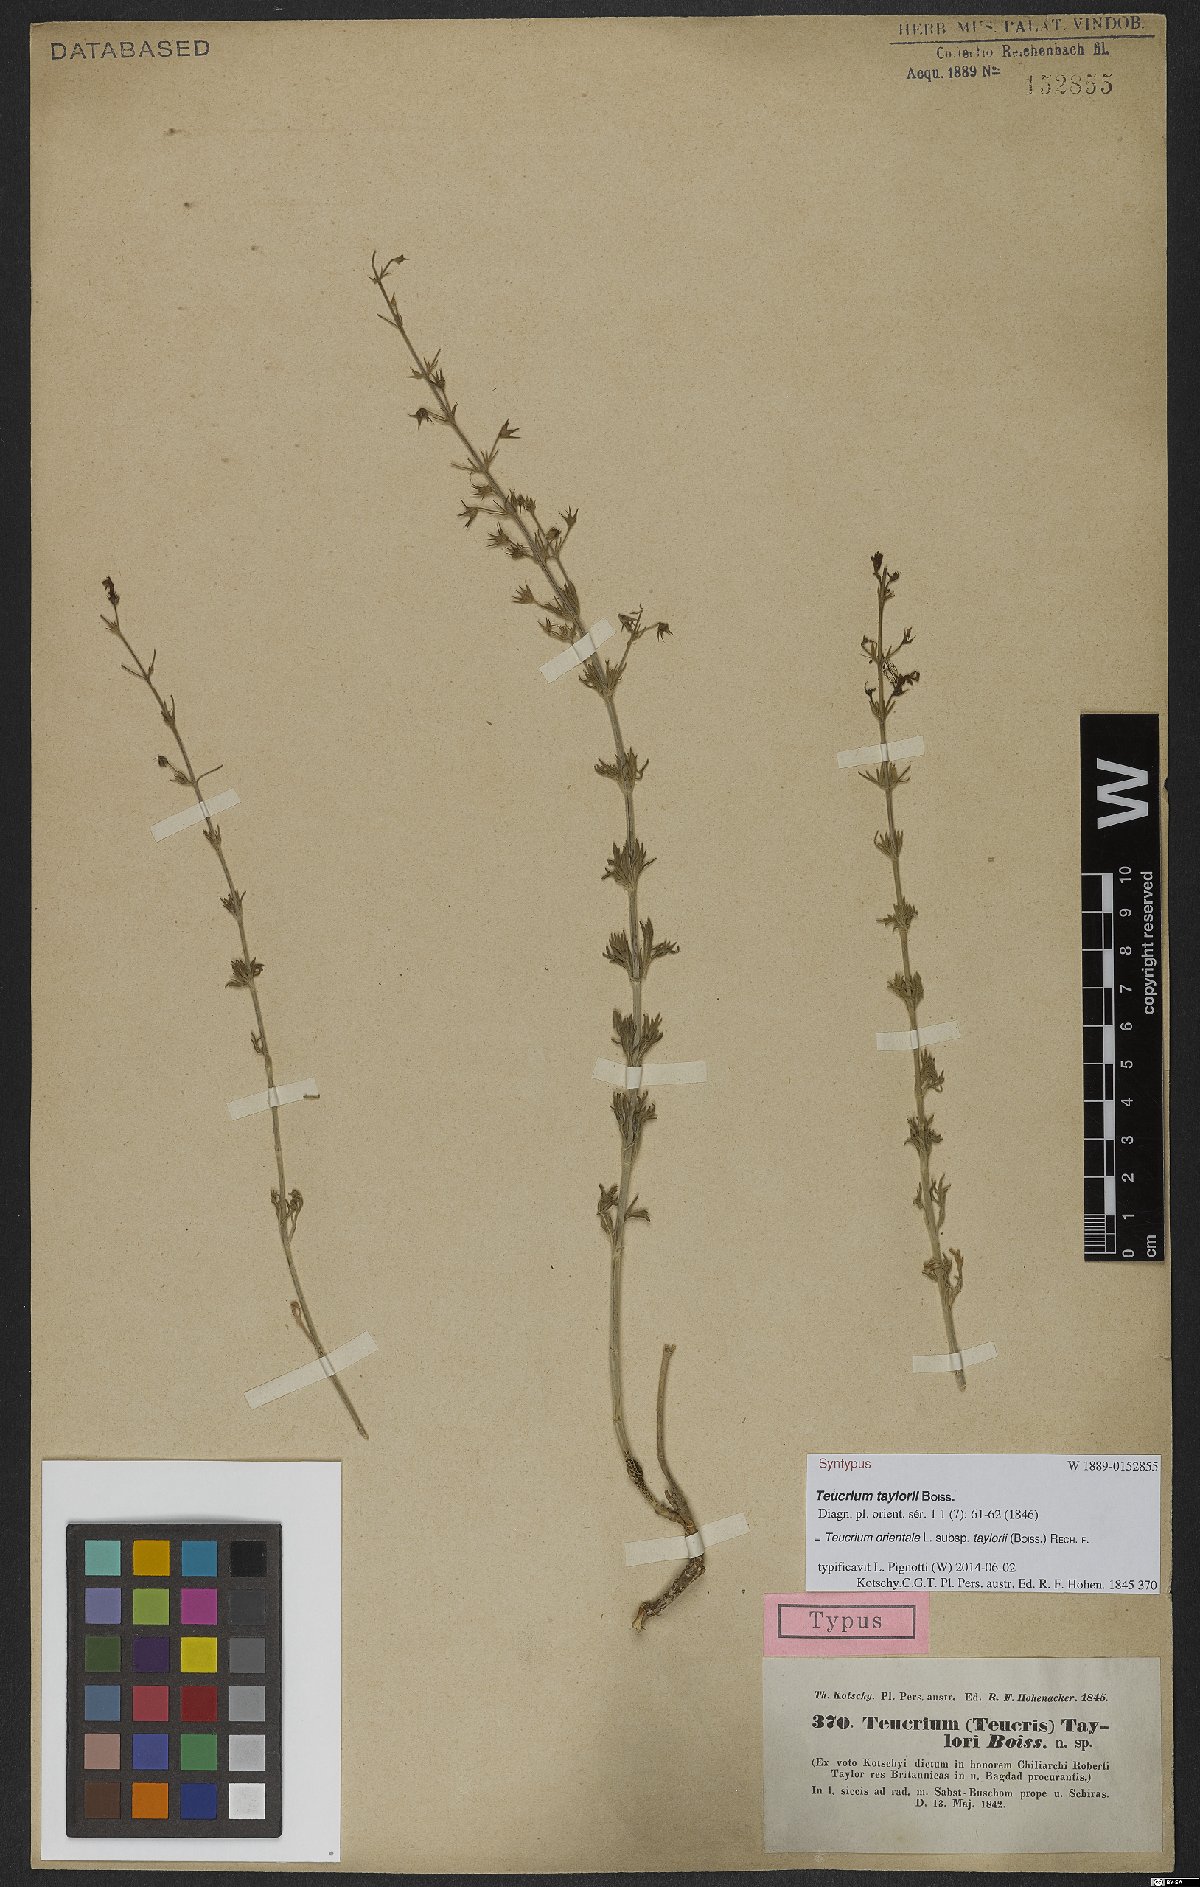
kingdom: Plantae
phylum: Tracheophyta
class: Magnoliopsida
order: Lamiales
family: Lamiaceae
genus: Teucrium
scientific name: Teucrium orientale
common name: Oriental germander
